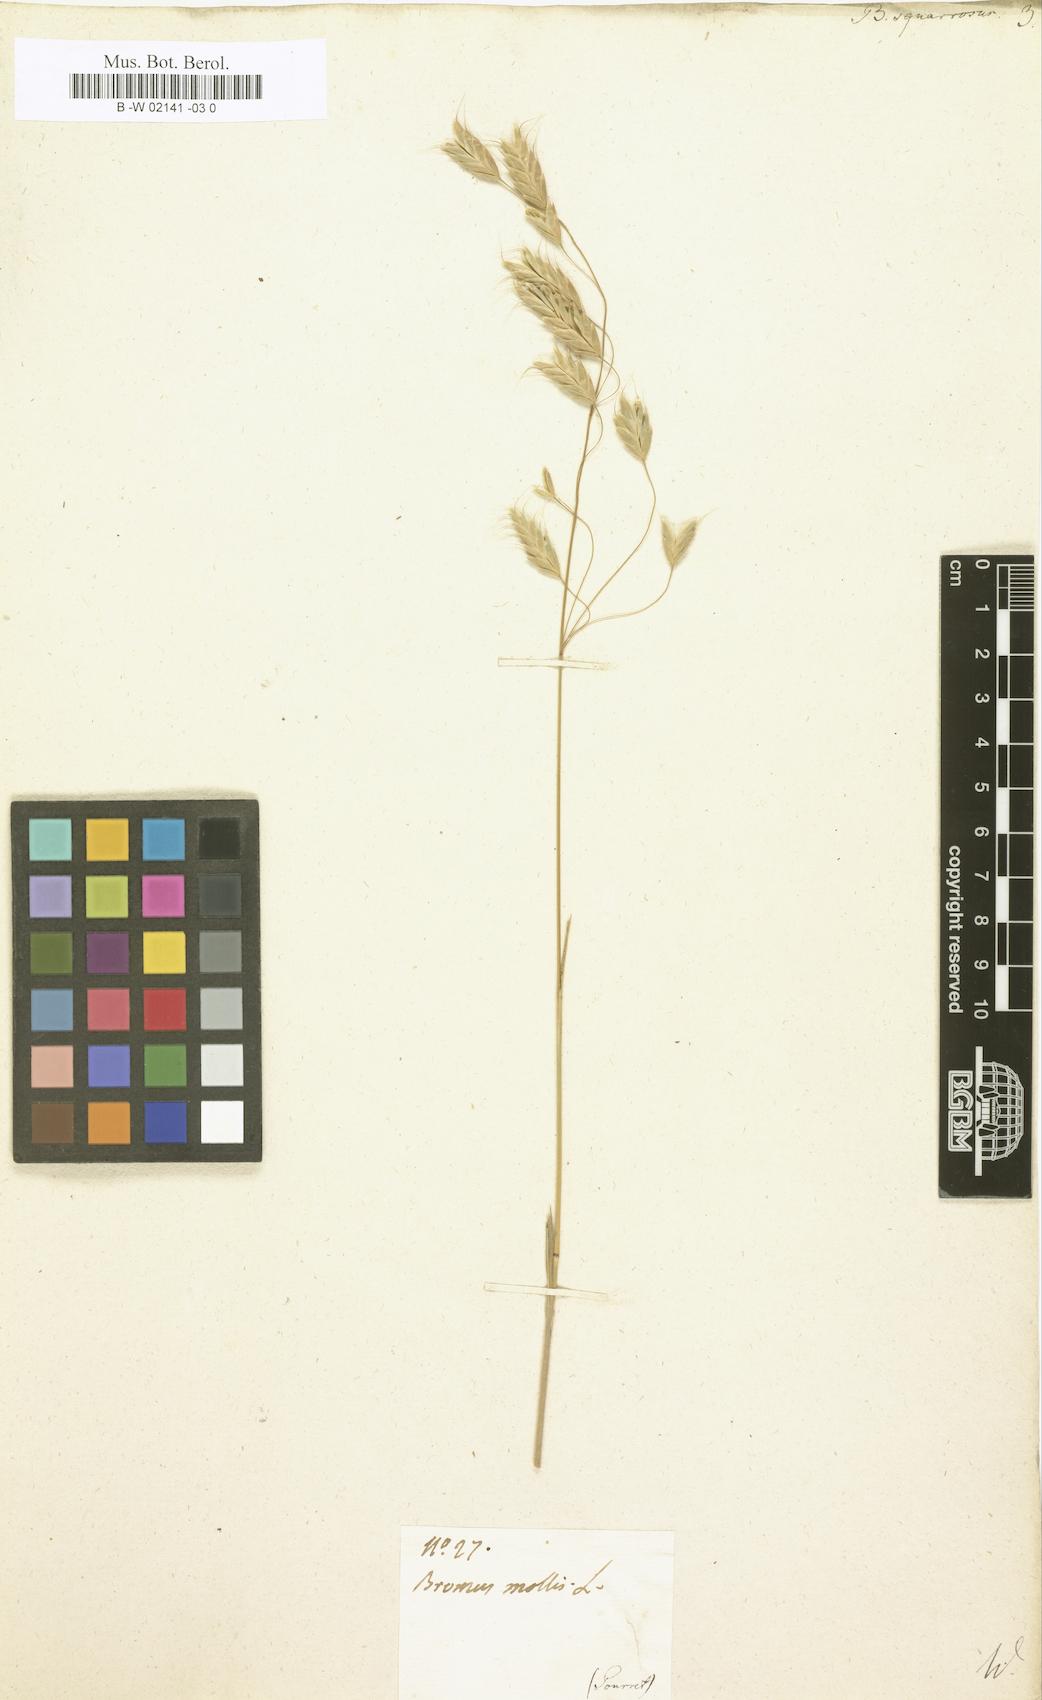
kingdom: Plantae
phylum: Tracheophyta
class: Liliopsida
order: Poales
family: Poaceae
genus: Bromus
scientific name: Bromus squarrosus
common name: Corn brome
